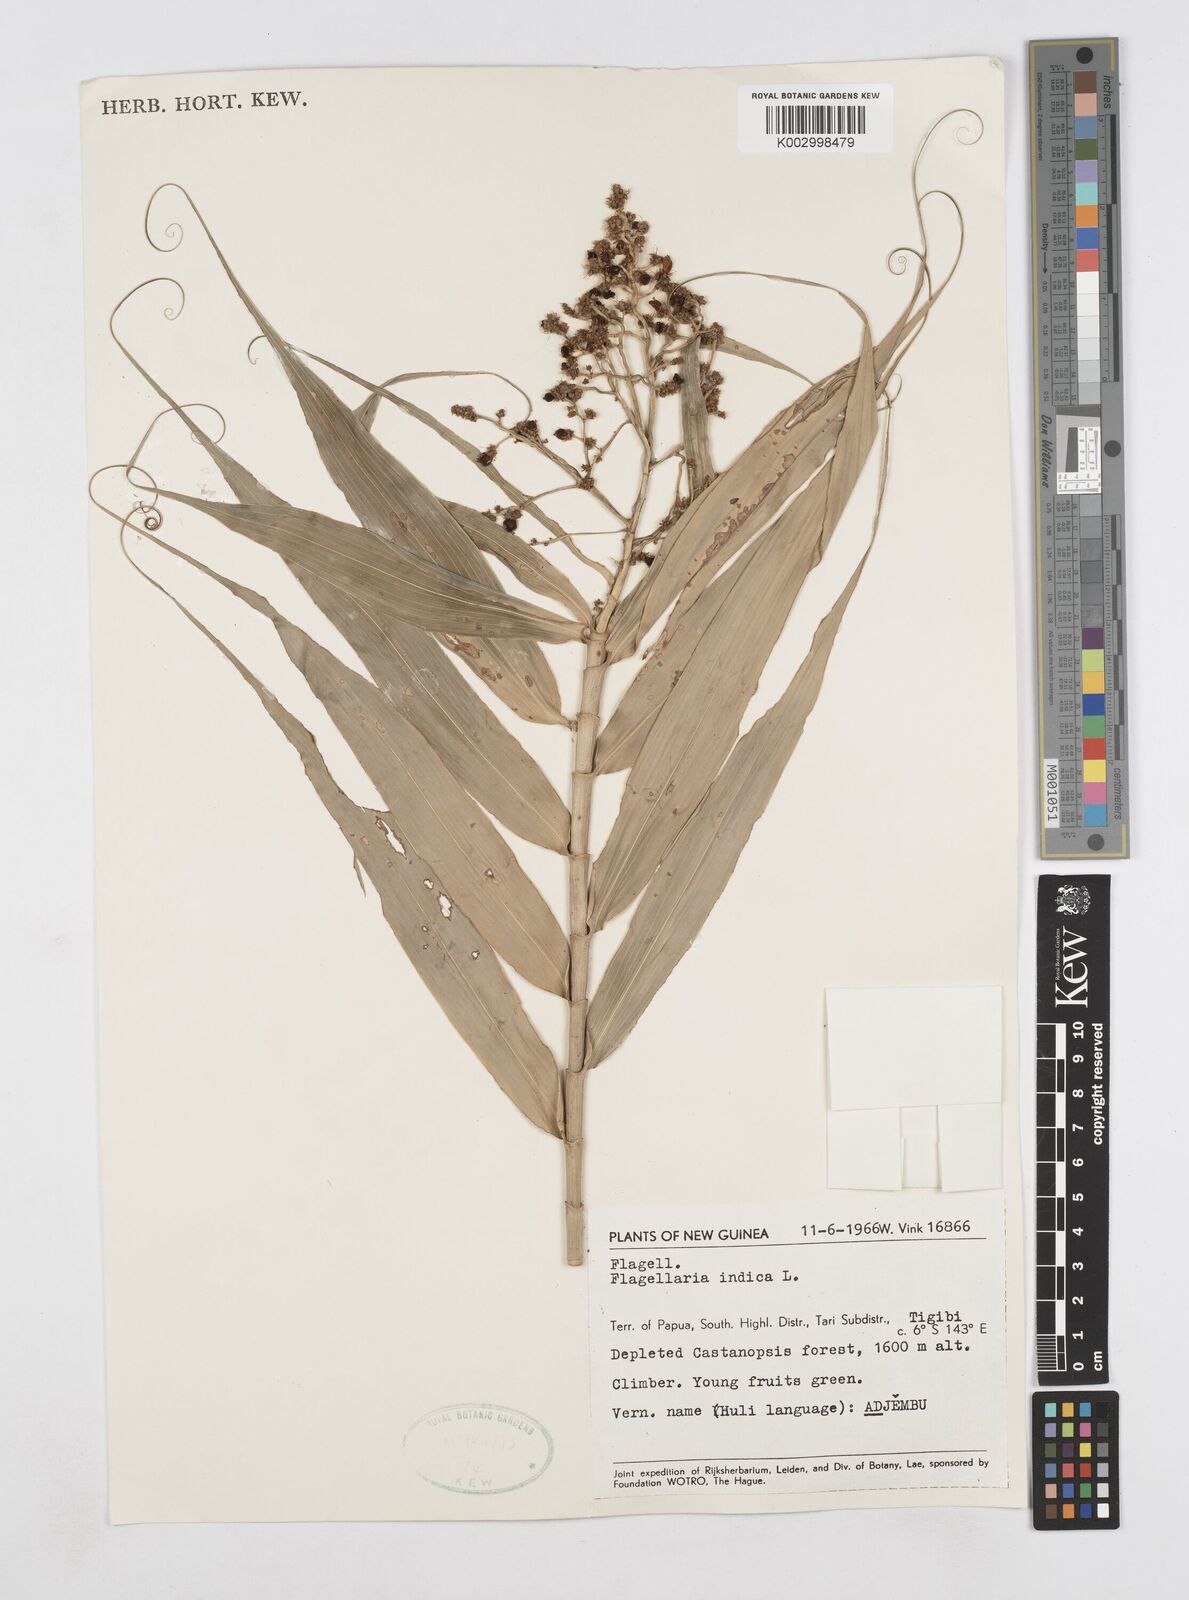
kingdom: Plantae
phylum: Tracheophyta
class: Liliopsida
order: Poales
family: Flagellariaceae
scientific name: Flagellariaceae
